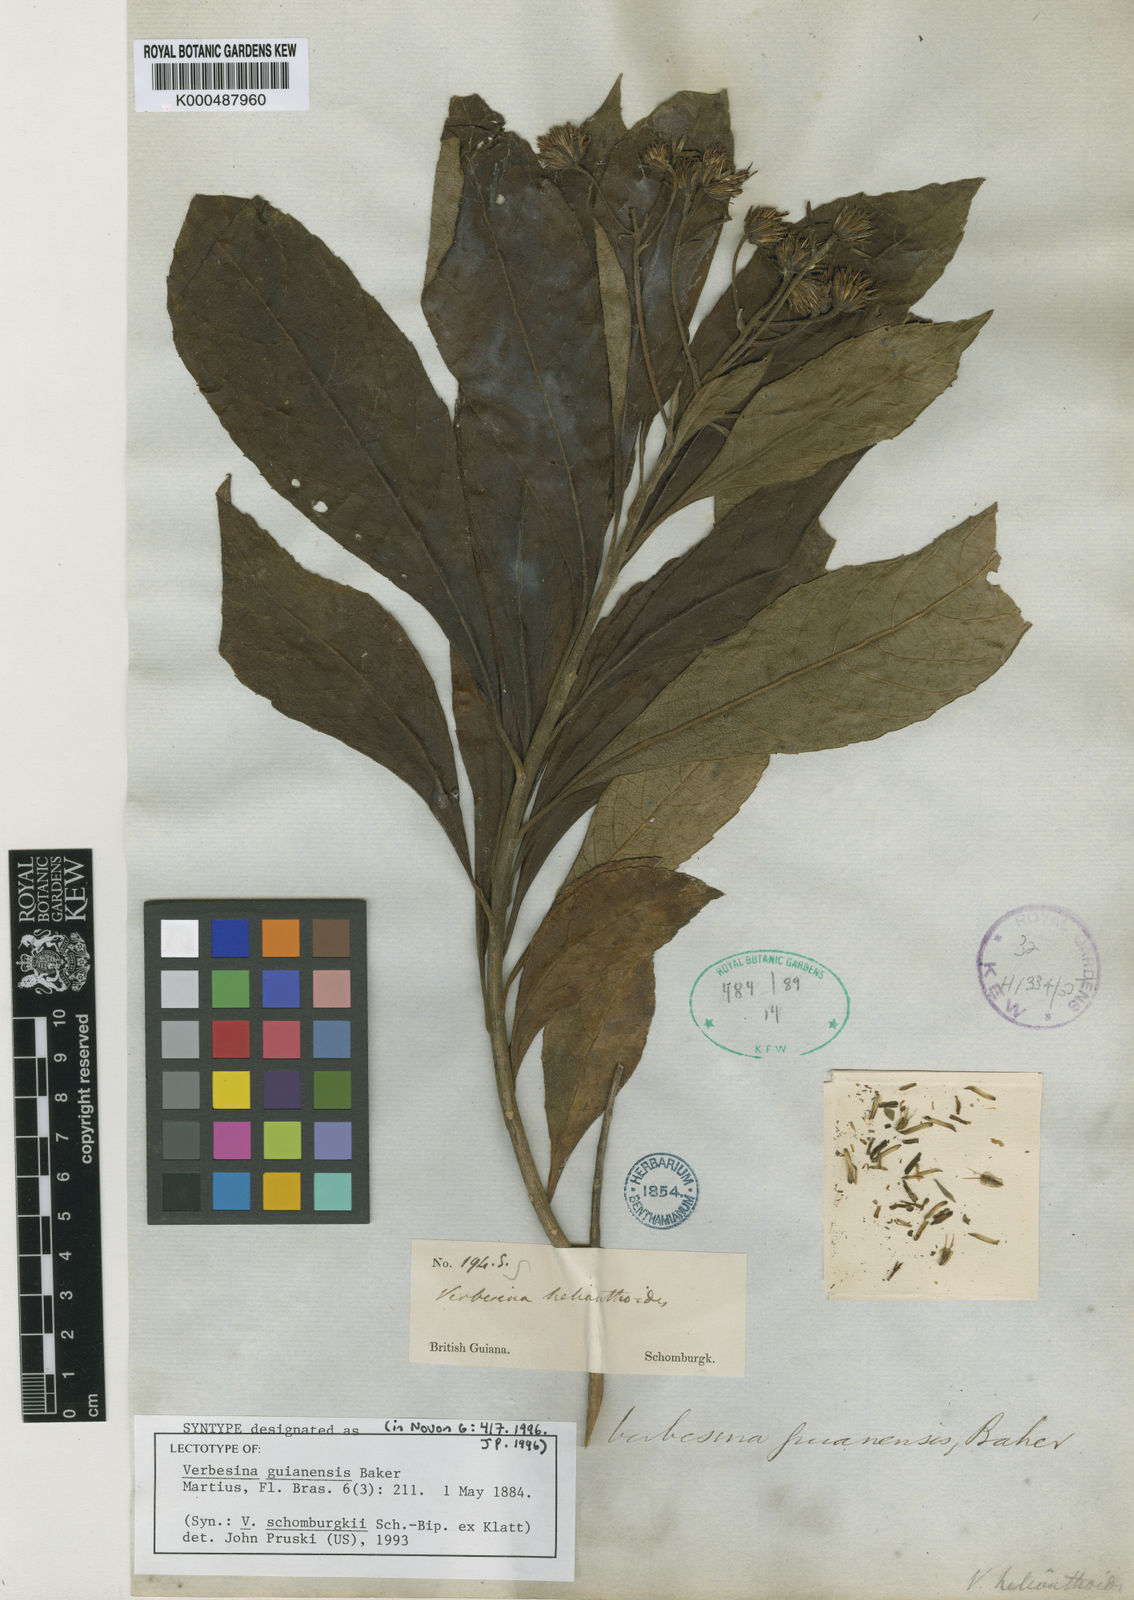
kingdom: Plantae
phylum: Tracheophyta
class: Magnoliopsida
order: Asterales
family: Asteraceae
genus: Verbesina
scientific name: Verbesina guianensis
